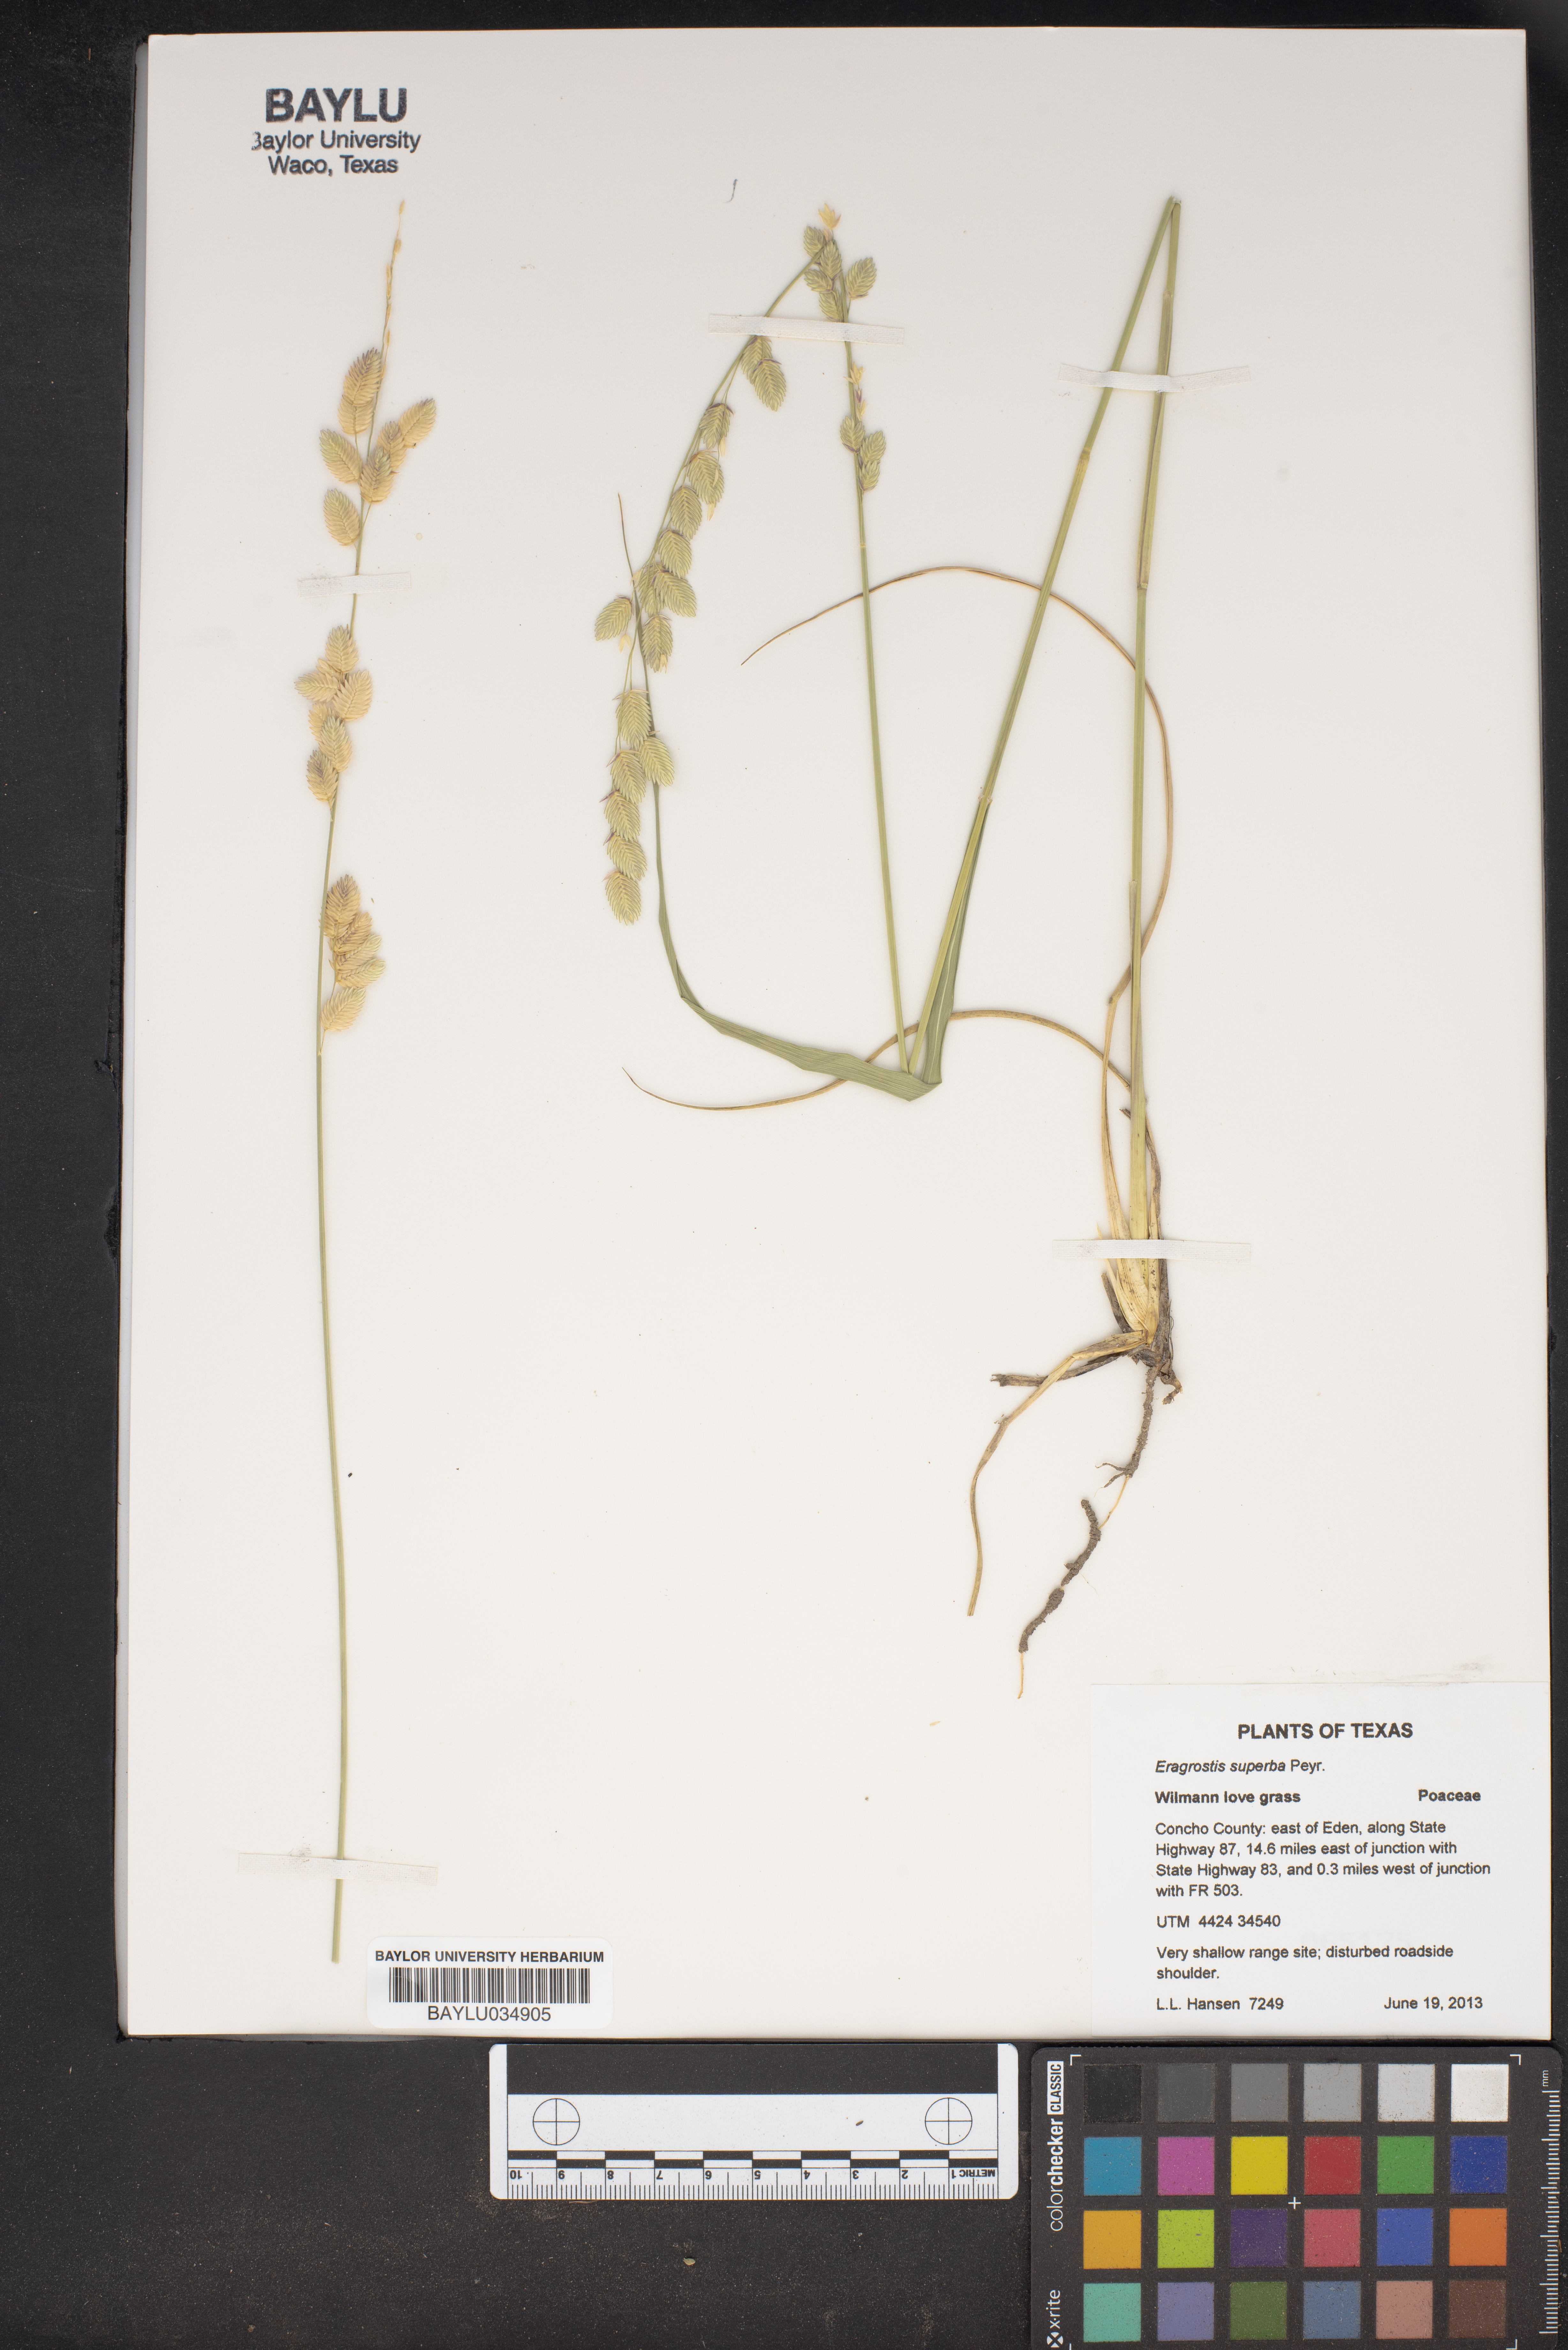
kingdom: Plantae
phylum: Tracheophyta
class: Liliopsida
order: Poales
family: Poaceae
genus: Eragrostis
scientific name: Eragrostis superba
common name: Wilman lovegrass
